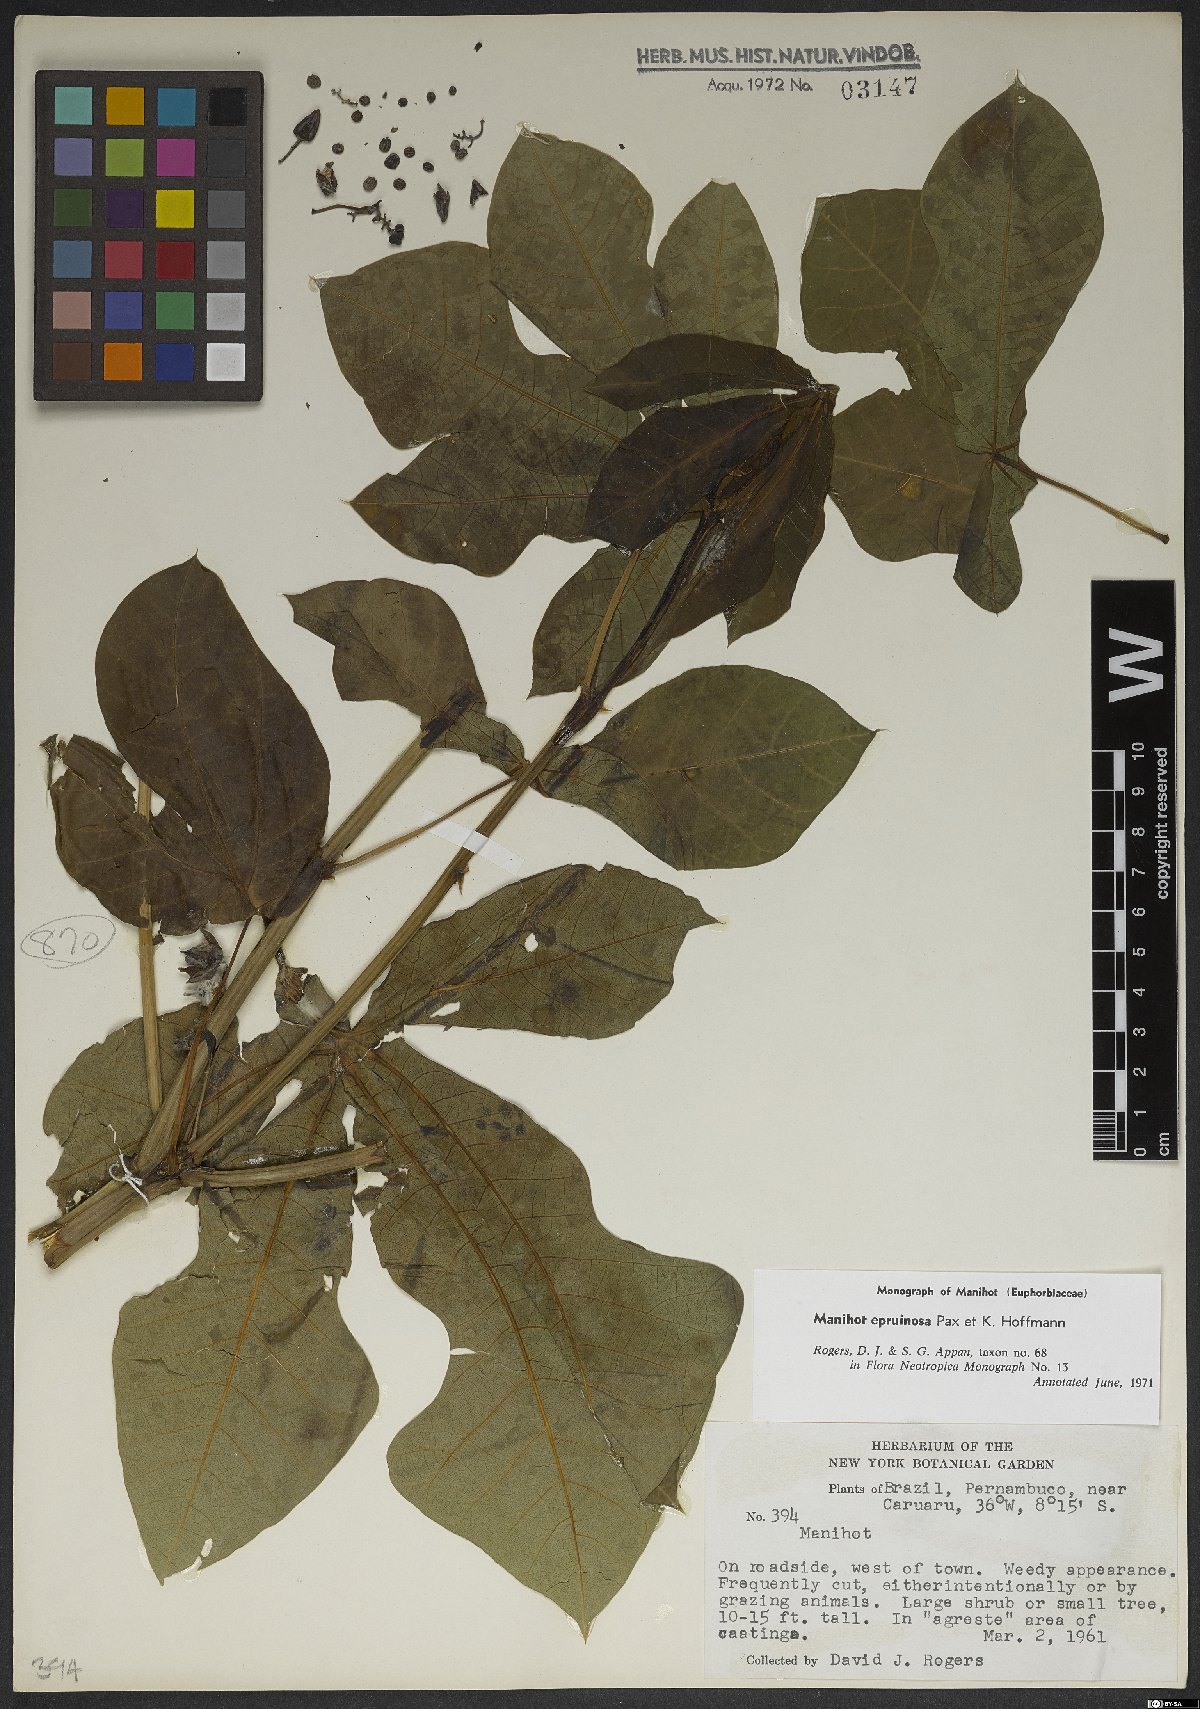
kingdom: Plantae
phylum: Tracheophyta
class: Magnoliopsida
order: Malpighiales
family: Euphorbiaceae
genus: Manihot
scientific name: Manihot epruinosa
